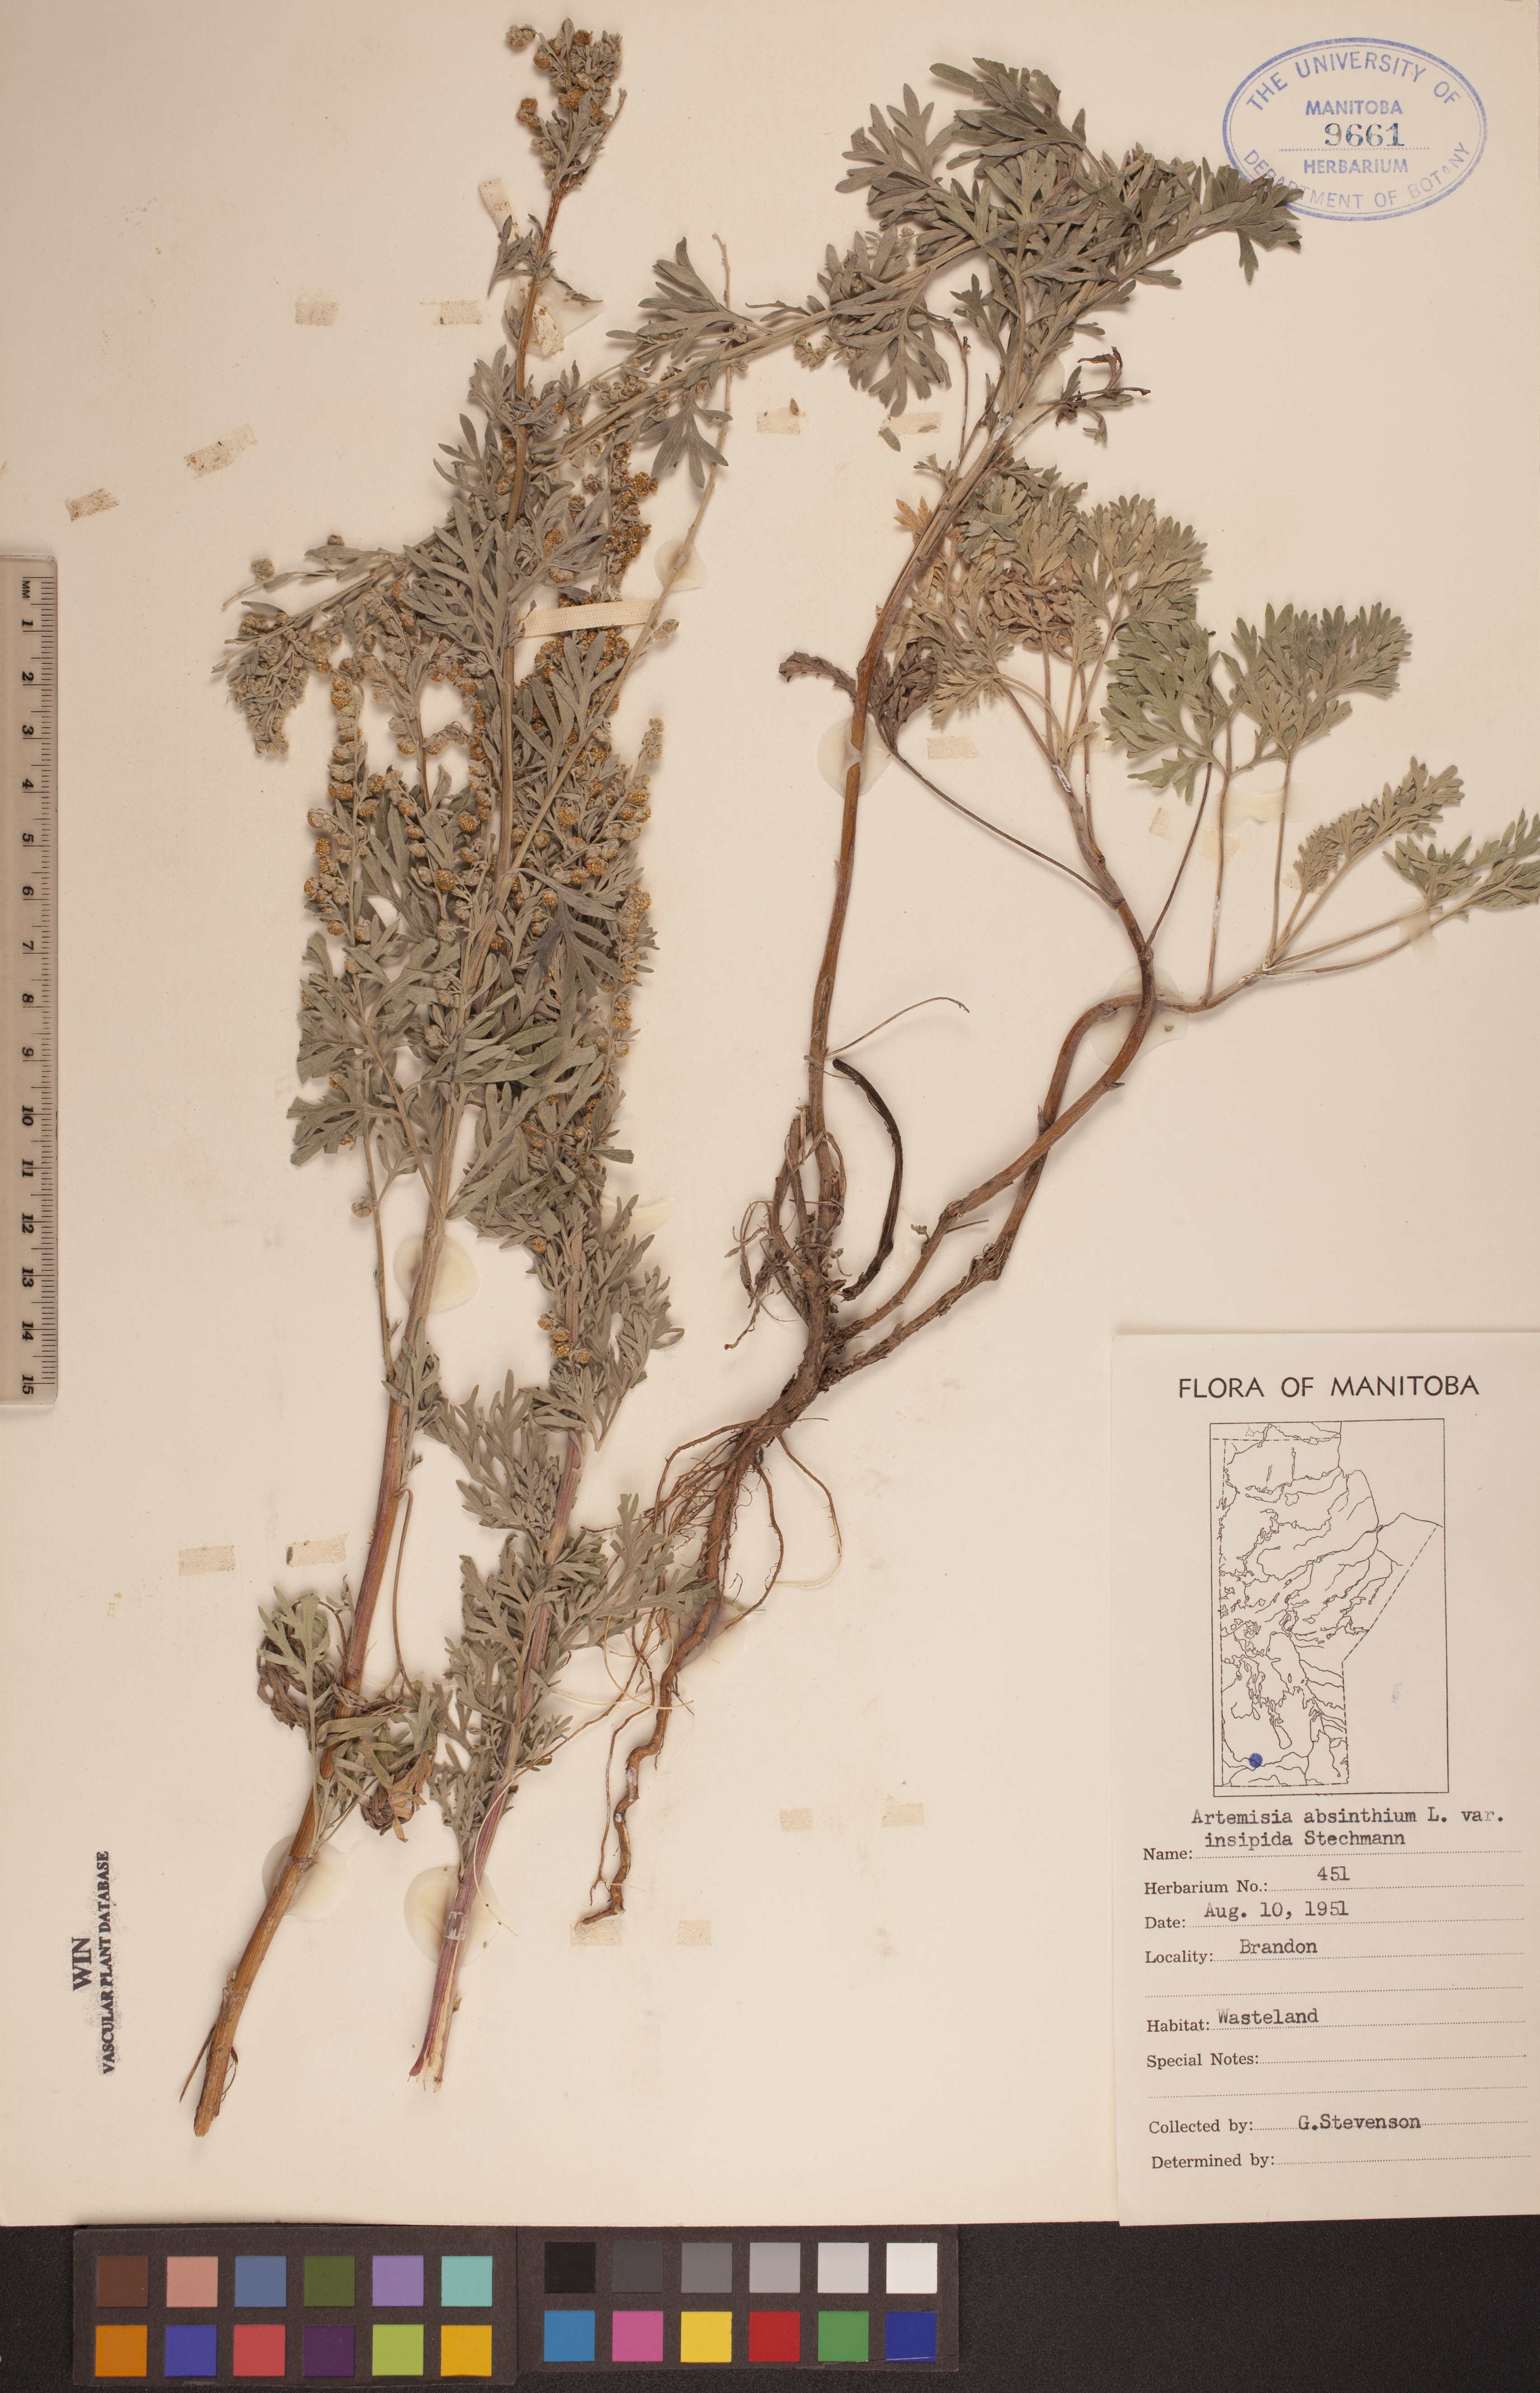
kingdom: Plantae
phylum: Tracheophyta
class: Magnoliopsida
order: Asterales
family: Asteraceae
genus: Artemisia
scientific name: Artemisia absinthium
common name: Wormwood
